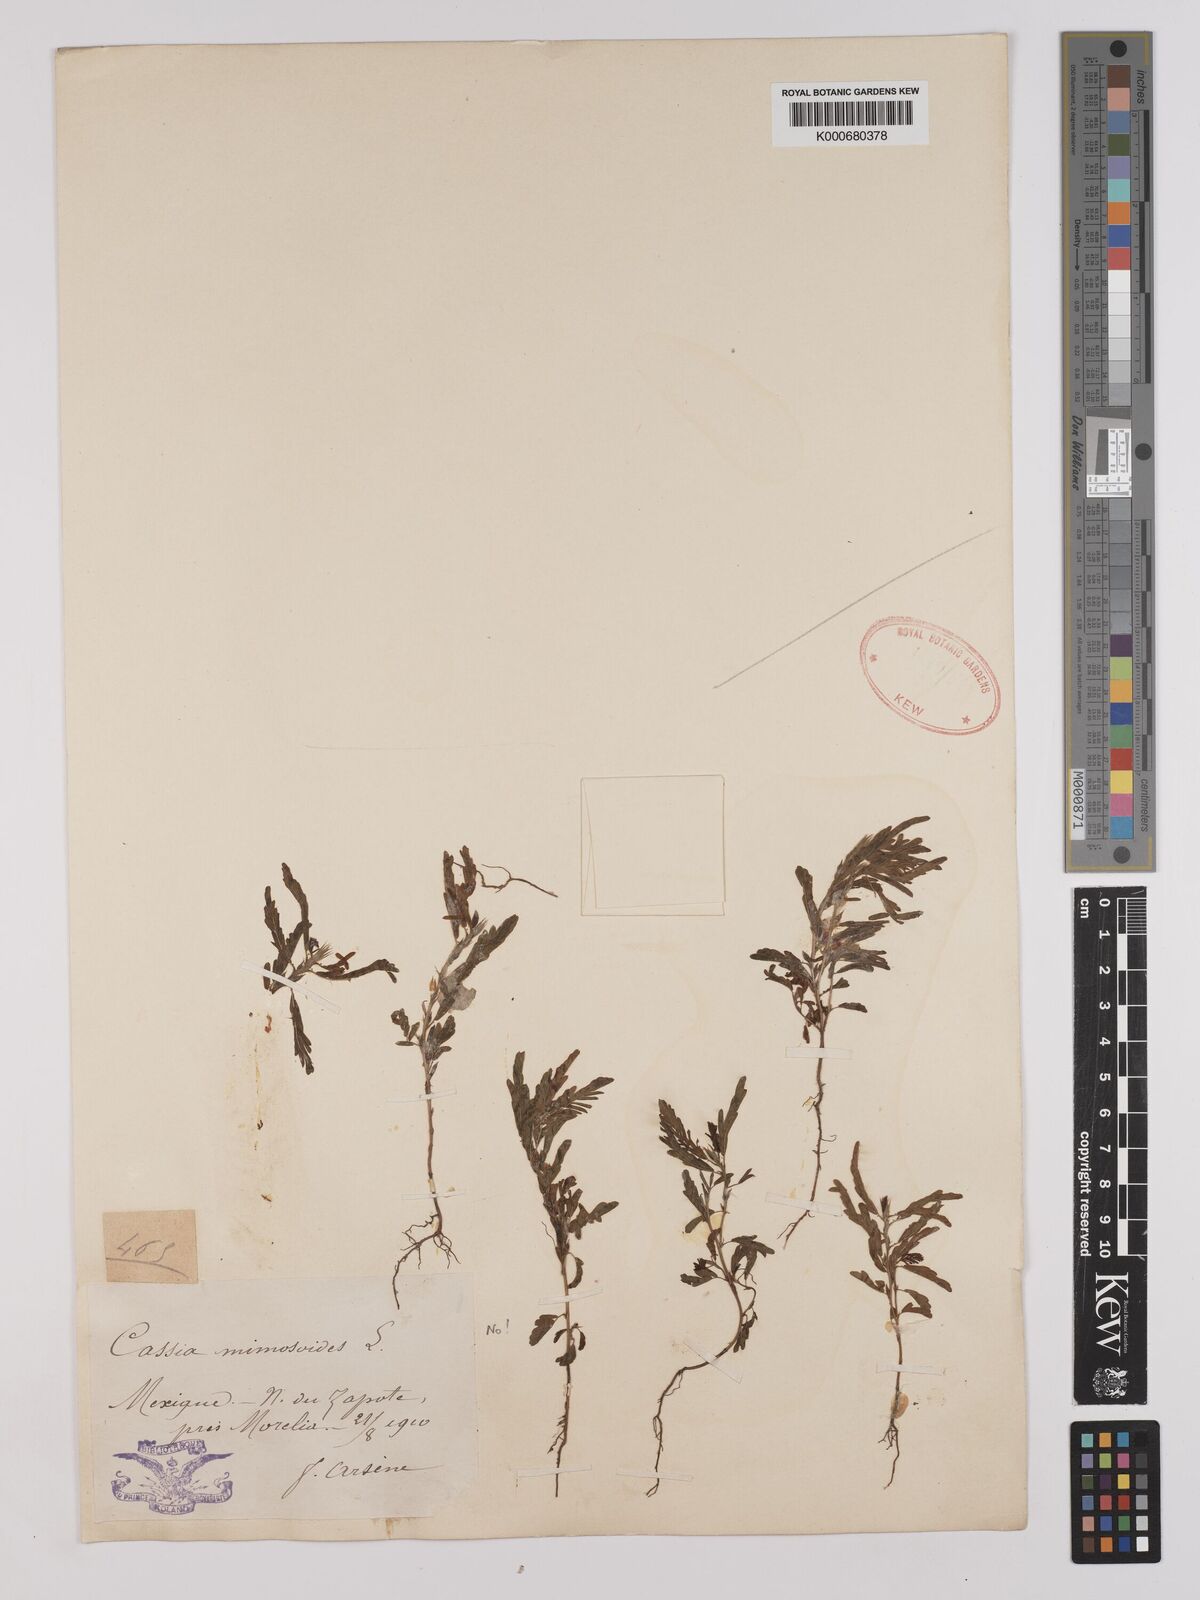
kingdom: Plantae
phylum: Tracheophyta
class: Magnoliopsida
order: Fabales
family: Fabaceae
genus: Chamaecrista
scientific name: Chamaecrista nictitans
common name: Sensitive cassia
